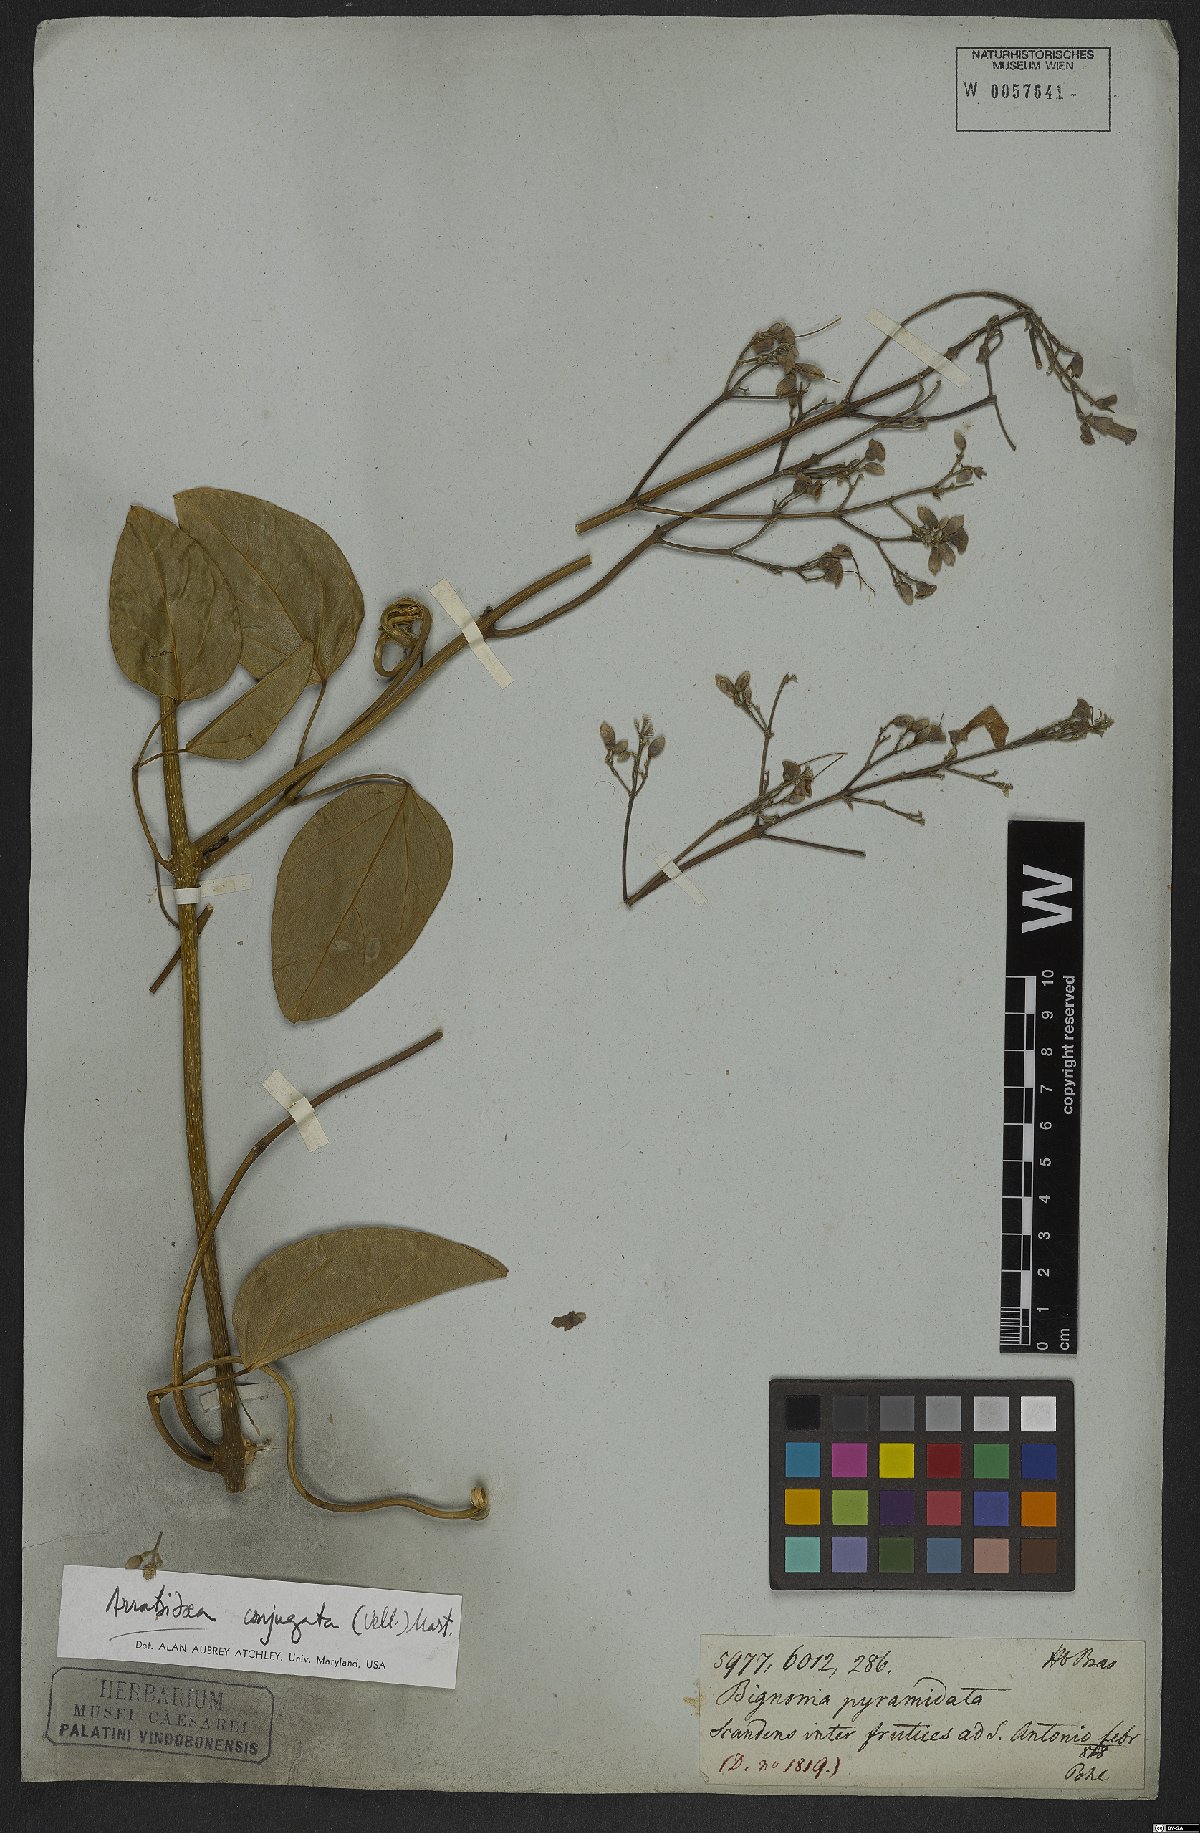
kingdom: Plantae
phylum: Tracheophyta
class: Magnoliopsida
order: Lamiales
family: Bignoniaceae
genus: Fridericia
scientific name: Fridericia conjugata
